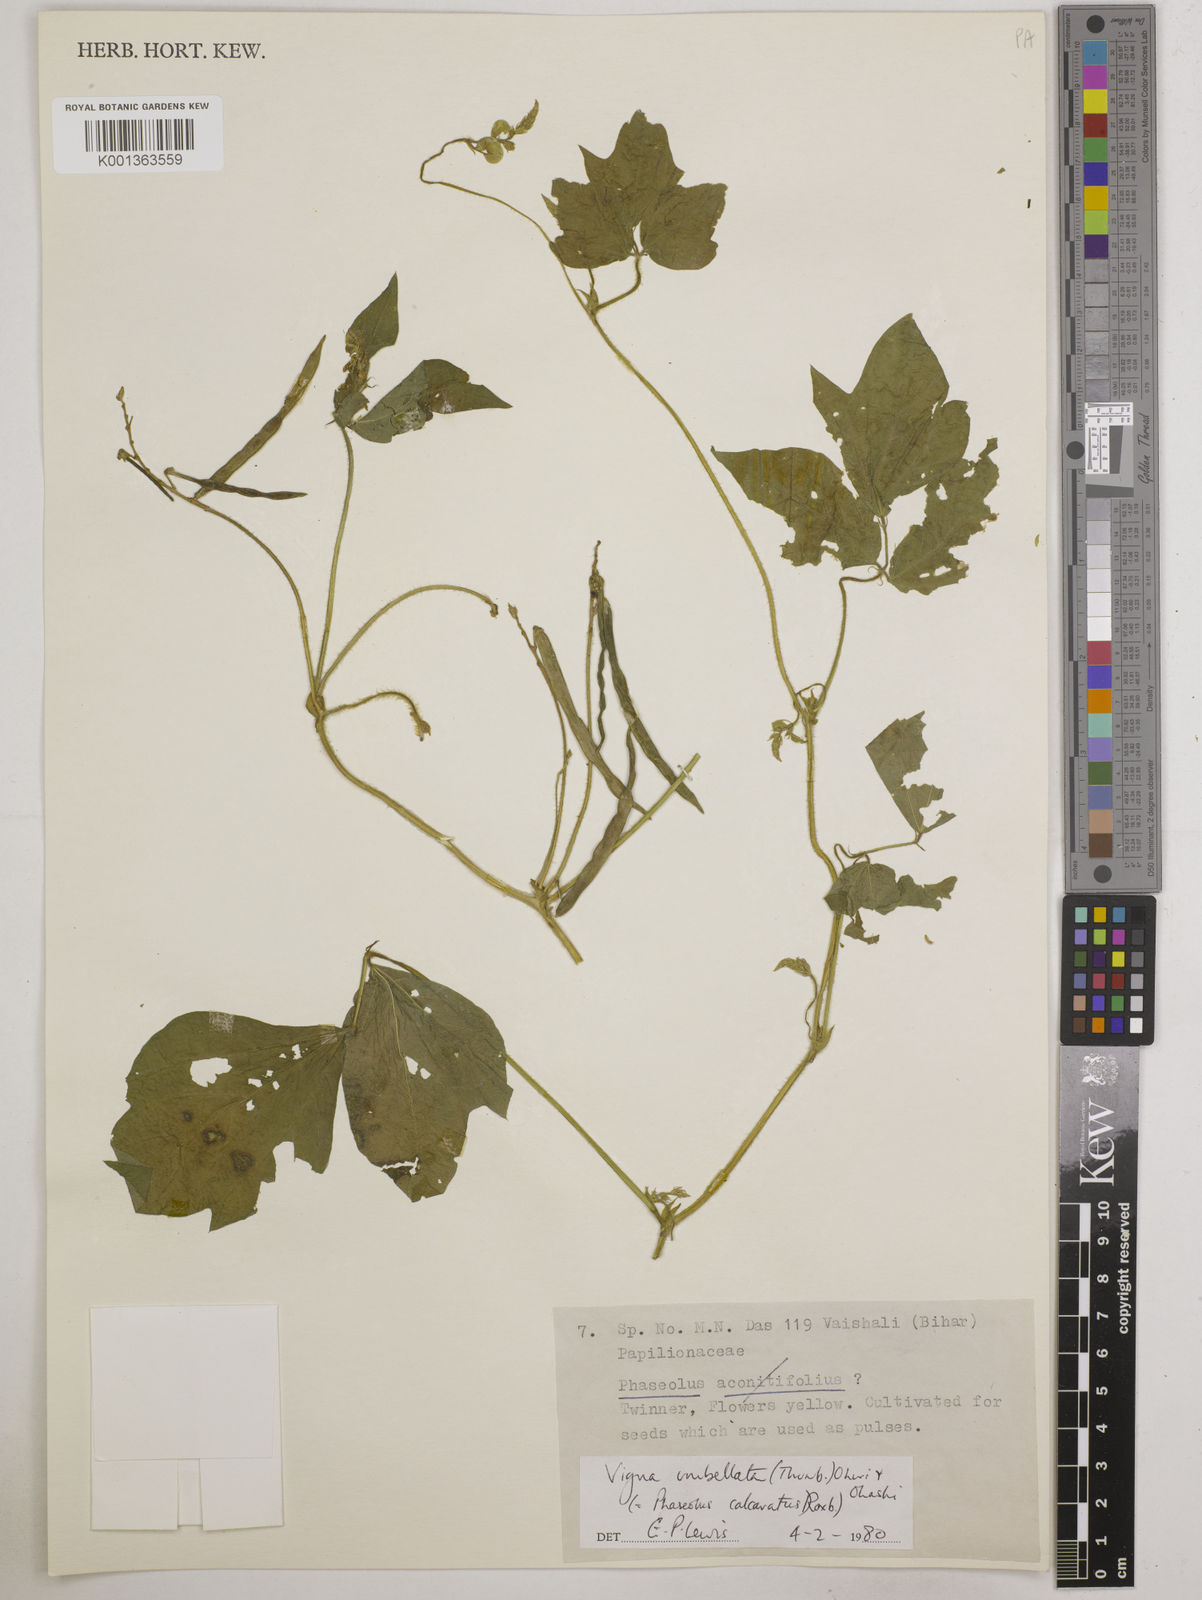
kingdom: Plantae
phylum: Tracheophyta
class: Magnoliopsida
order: Fabales
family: Fabaceae
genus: Vigna
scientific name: Vigna umbellata
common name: Oriental-bean
